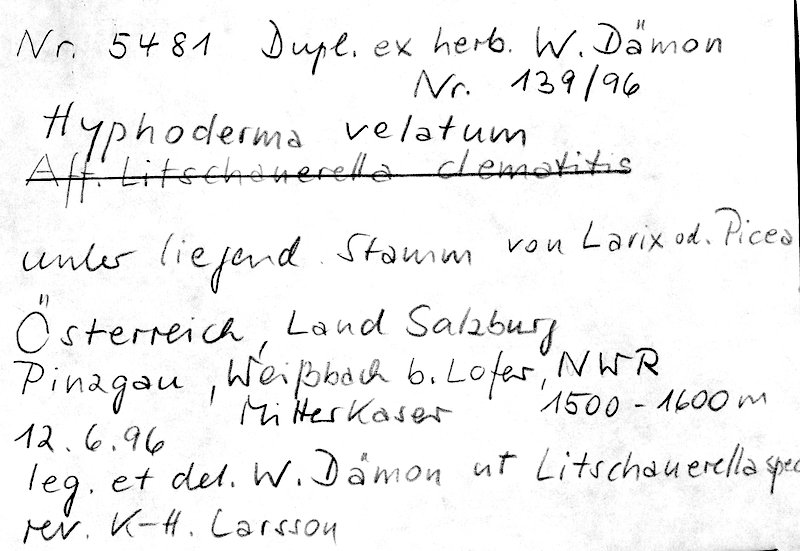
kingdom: Fungi
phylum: Basidiomycota
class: Agaricomycetes
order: Polyporales
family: Hyphodermataceae
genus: Hyphoderma
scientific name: Hyphoderma velatum
